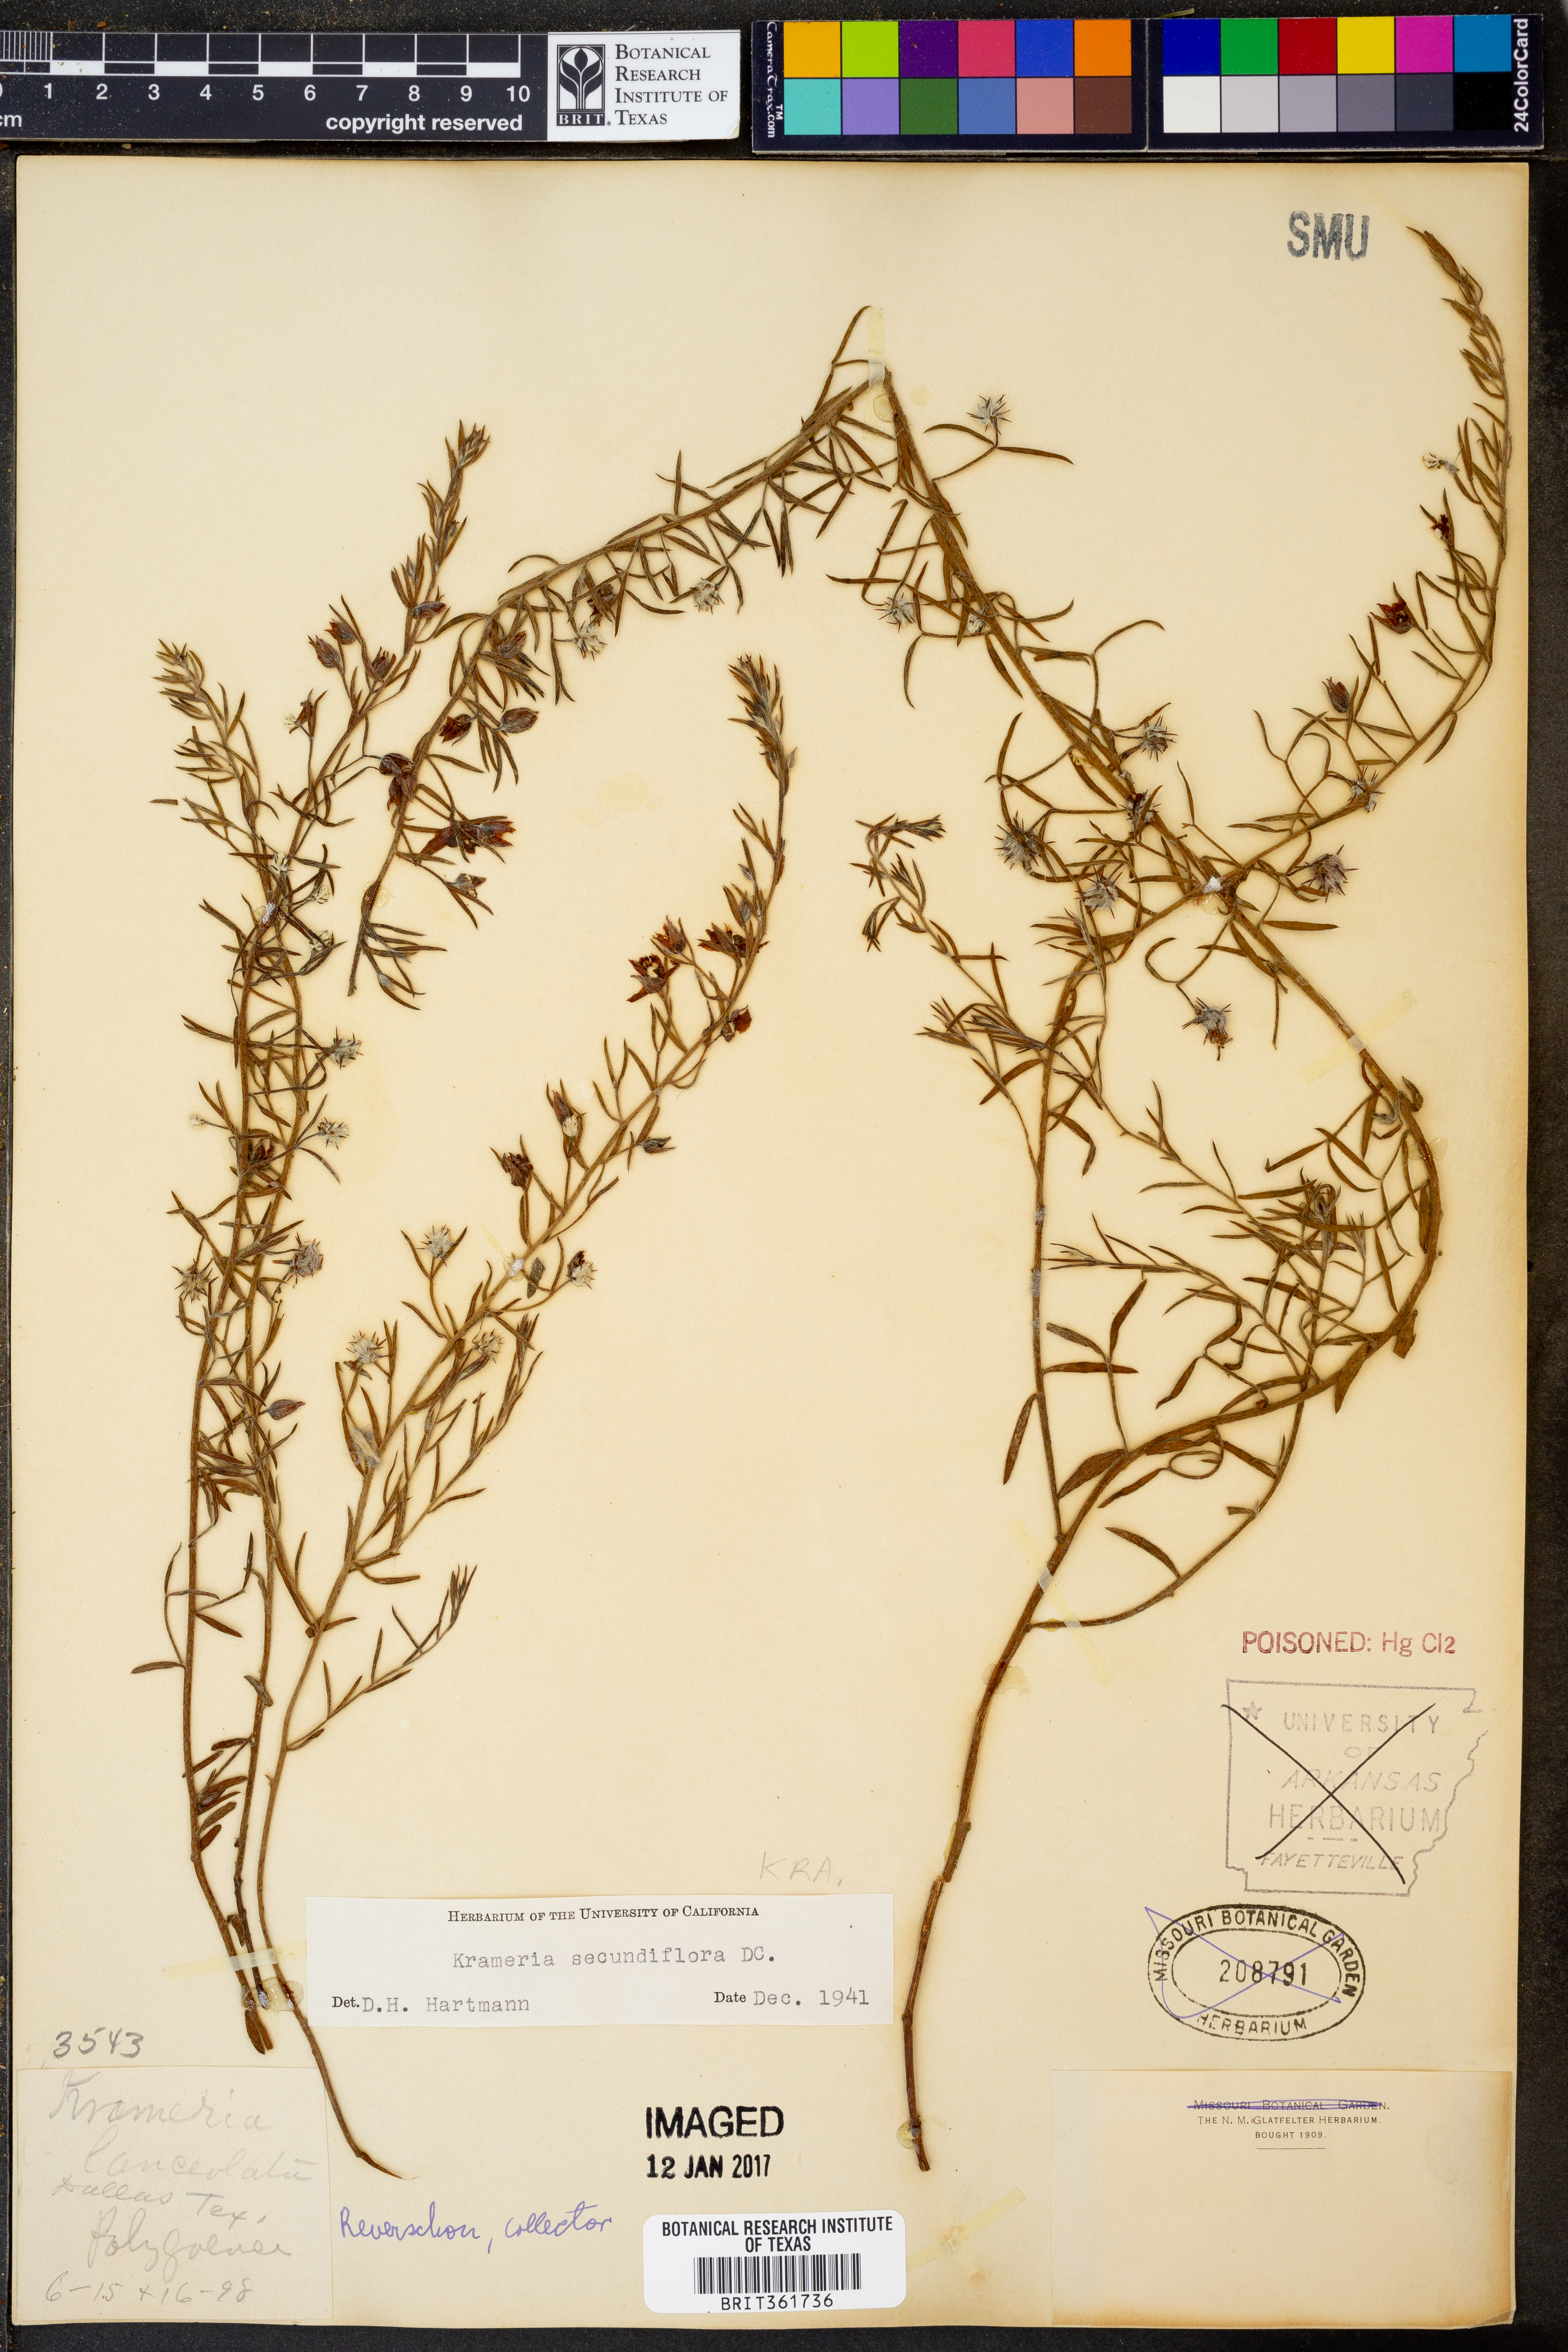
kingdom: Plantae
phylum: Tracheophyta
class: Magnoliopsida
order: Zygophyllales
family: Krameriaceae
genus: Krameria
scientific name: Krameria secundiflora
